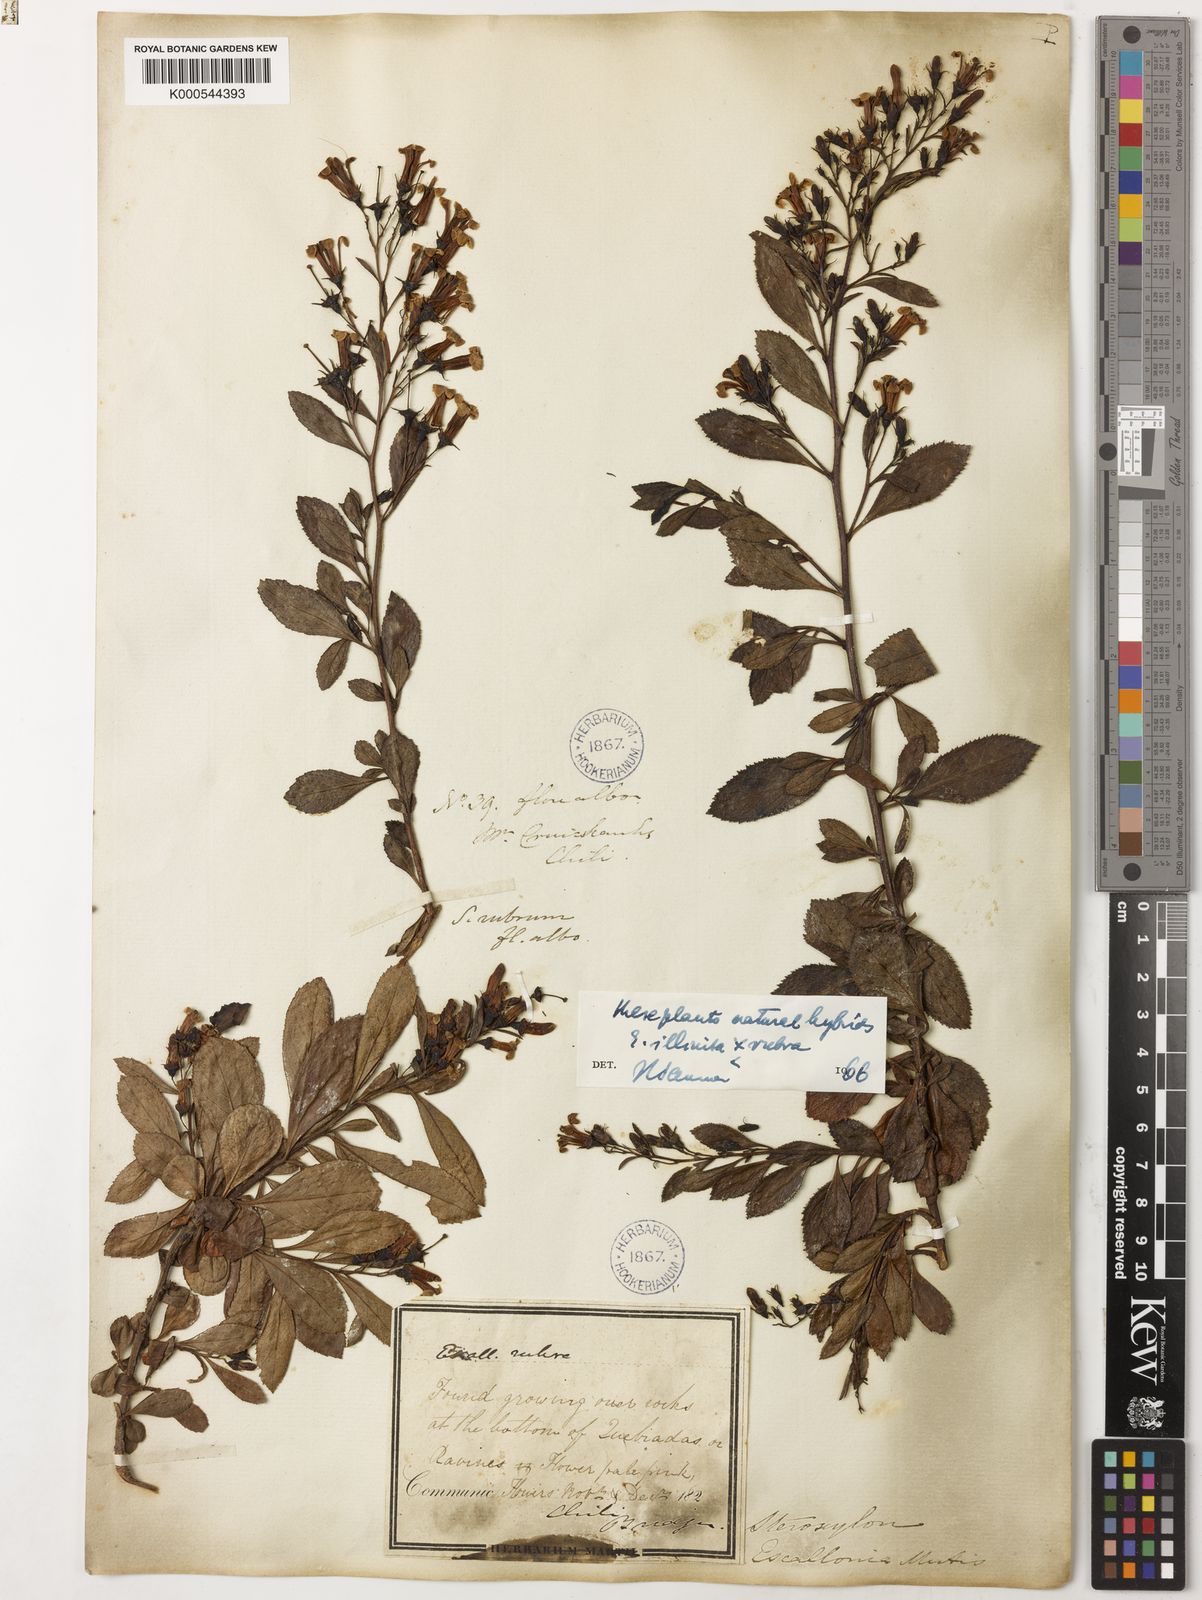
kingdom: Plantae
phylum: Tracheophyta
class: Magnoliopsida
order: Escalloniales
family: Escalloniaceae
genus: Escallonia
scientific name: Escallonia rubra
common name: Redclaws
